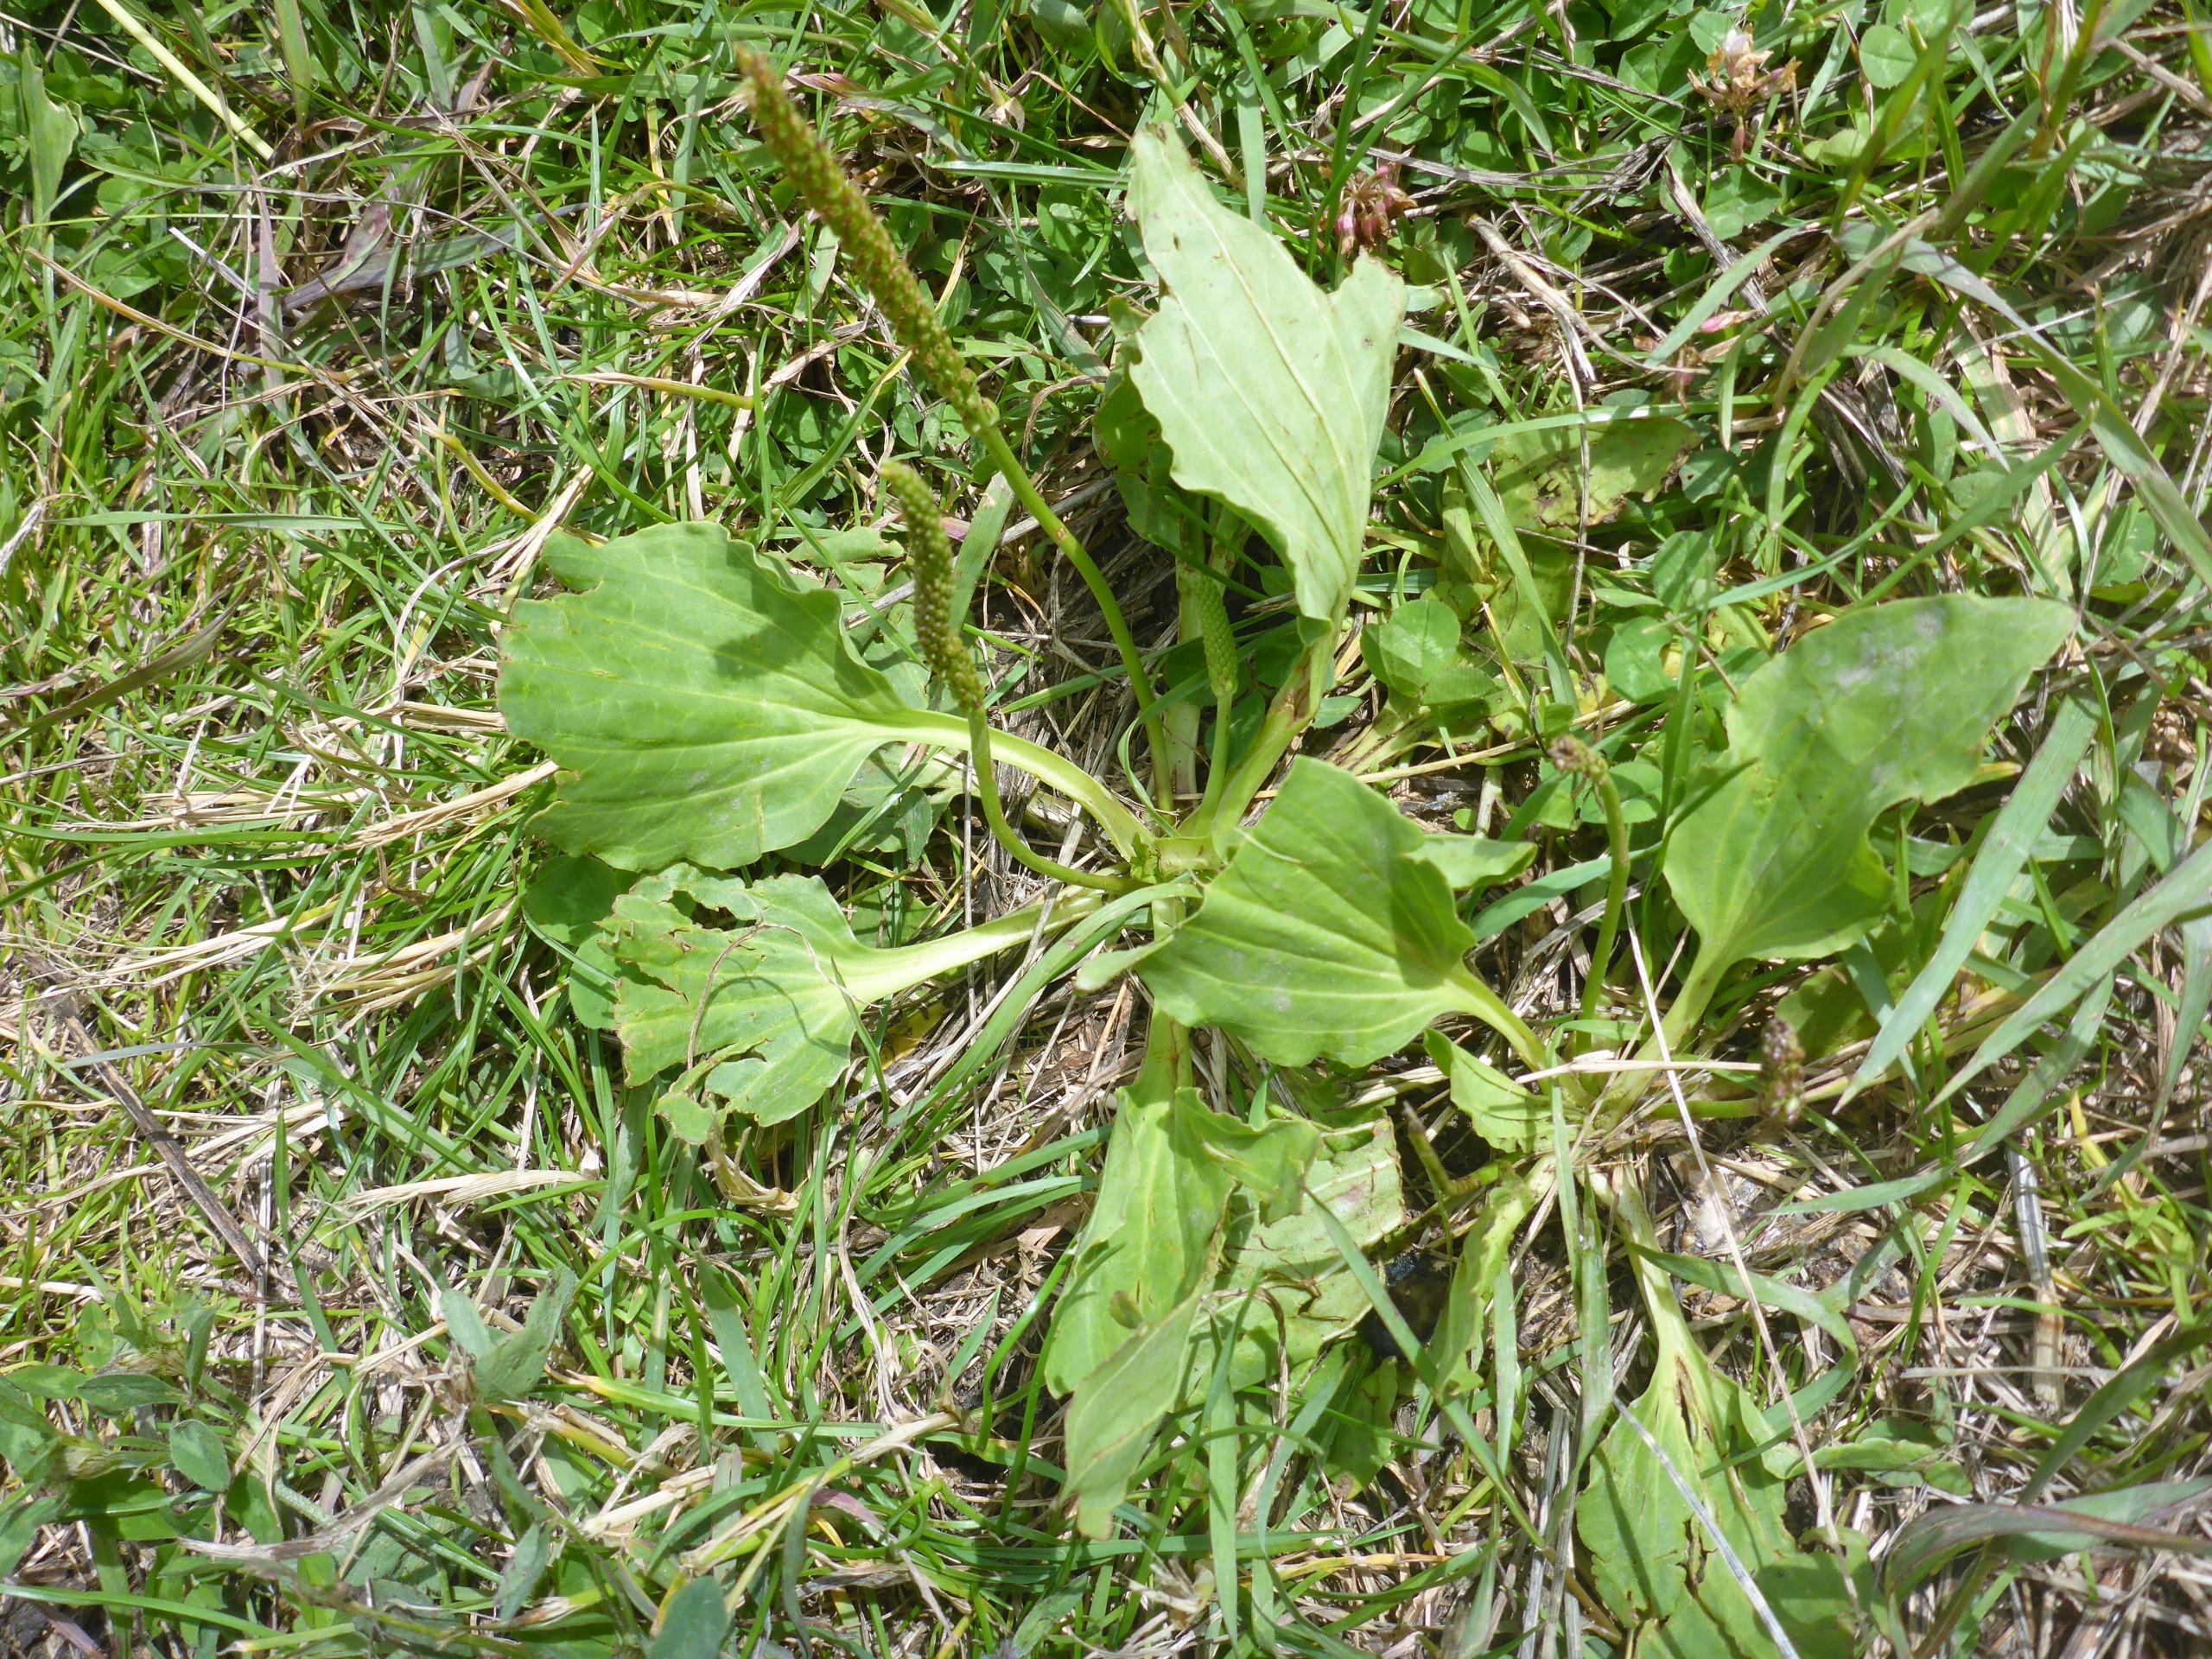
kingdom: Plantae
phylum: Tracheophyta
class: Magnoliopsida
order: Lamiales
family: Plantaginaceae
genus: Plantago
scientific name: Plantago major
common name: Glat vejbred
